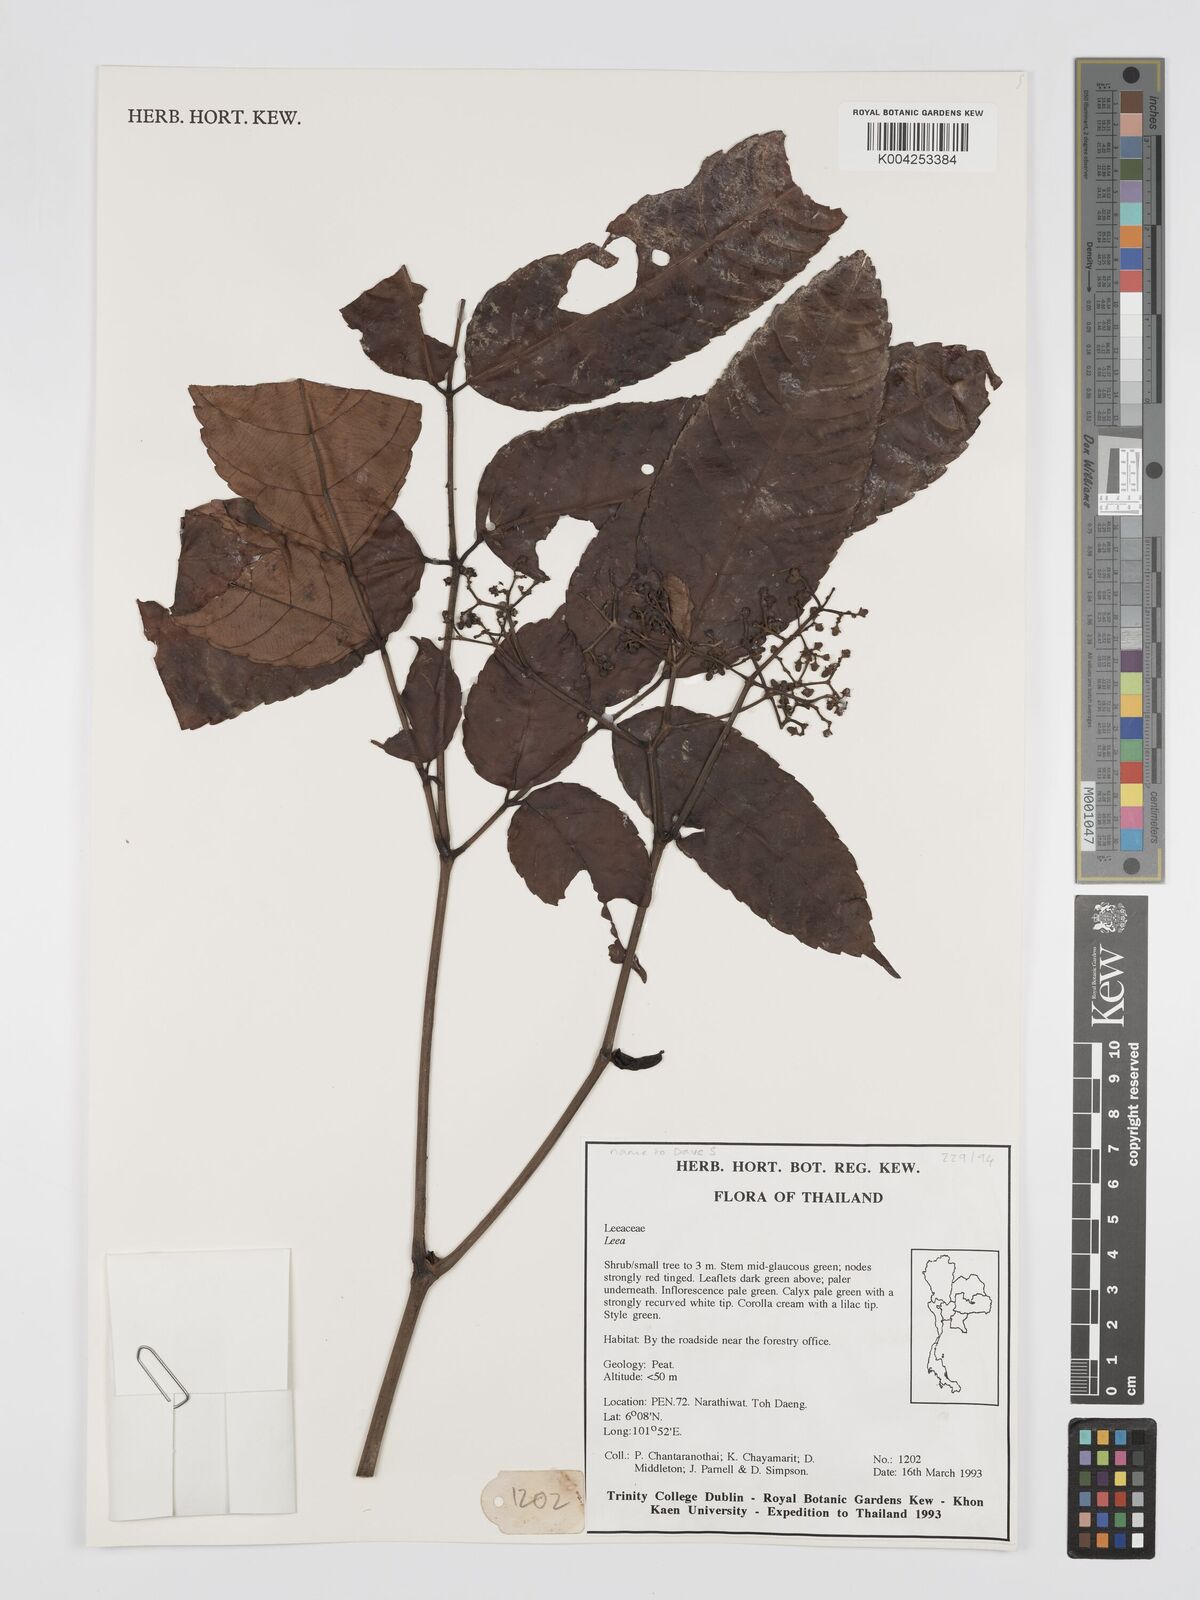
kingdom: Plantae
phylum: Tracheophyta
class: Magnoliopsida
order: Vitales
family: Vitaceae
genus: Leea
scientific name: Leea
